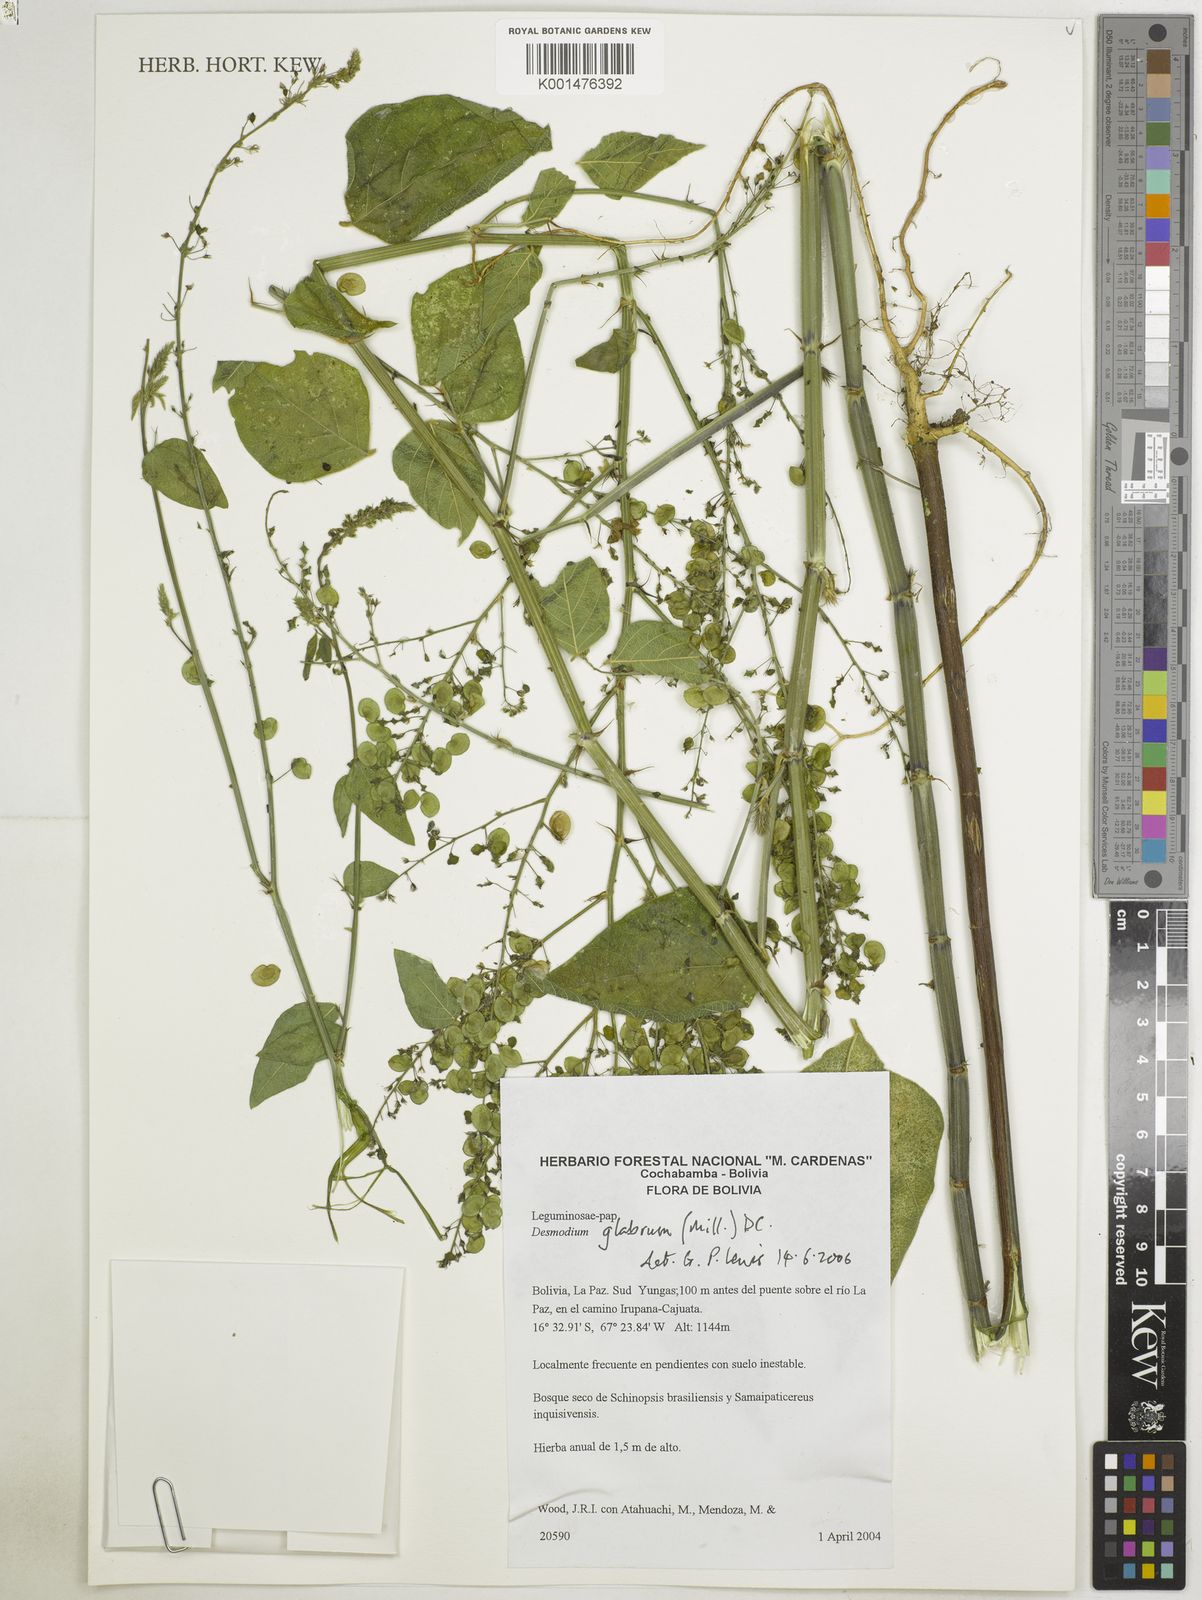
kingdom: Plantae
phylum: Tracheophyta
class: Magnoliopsida
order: Fabales
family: Fabaceae
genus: Desmodium
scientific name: Desmodium glabrum
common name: Zarzabacoa dulce
